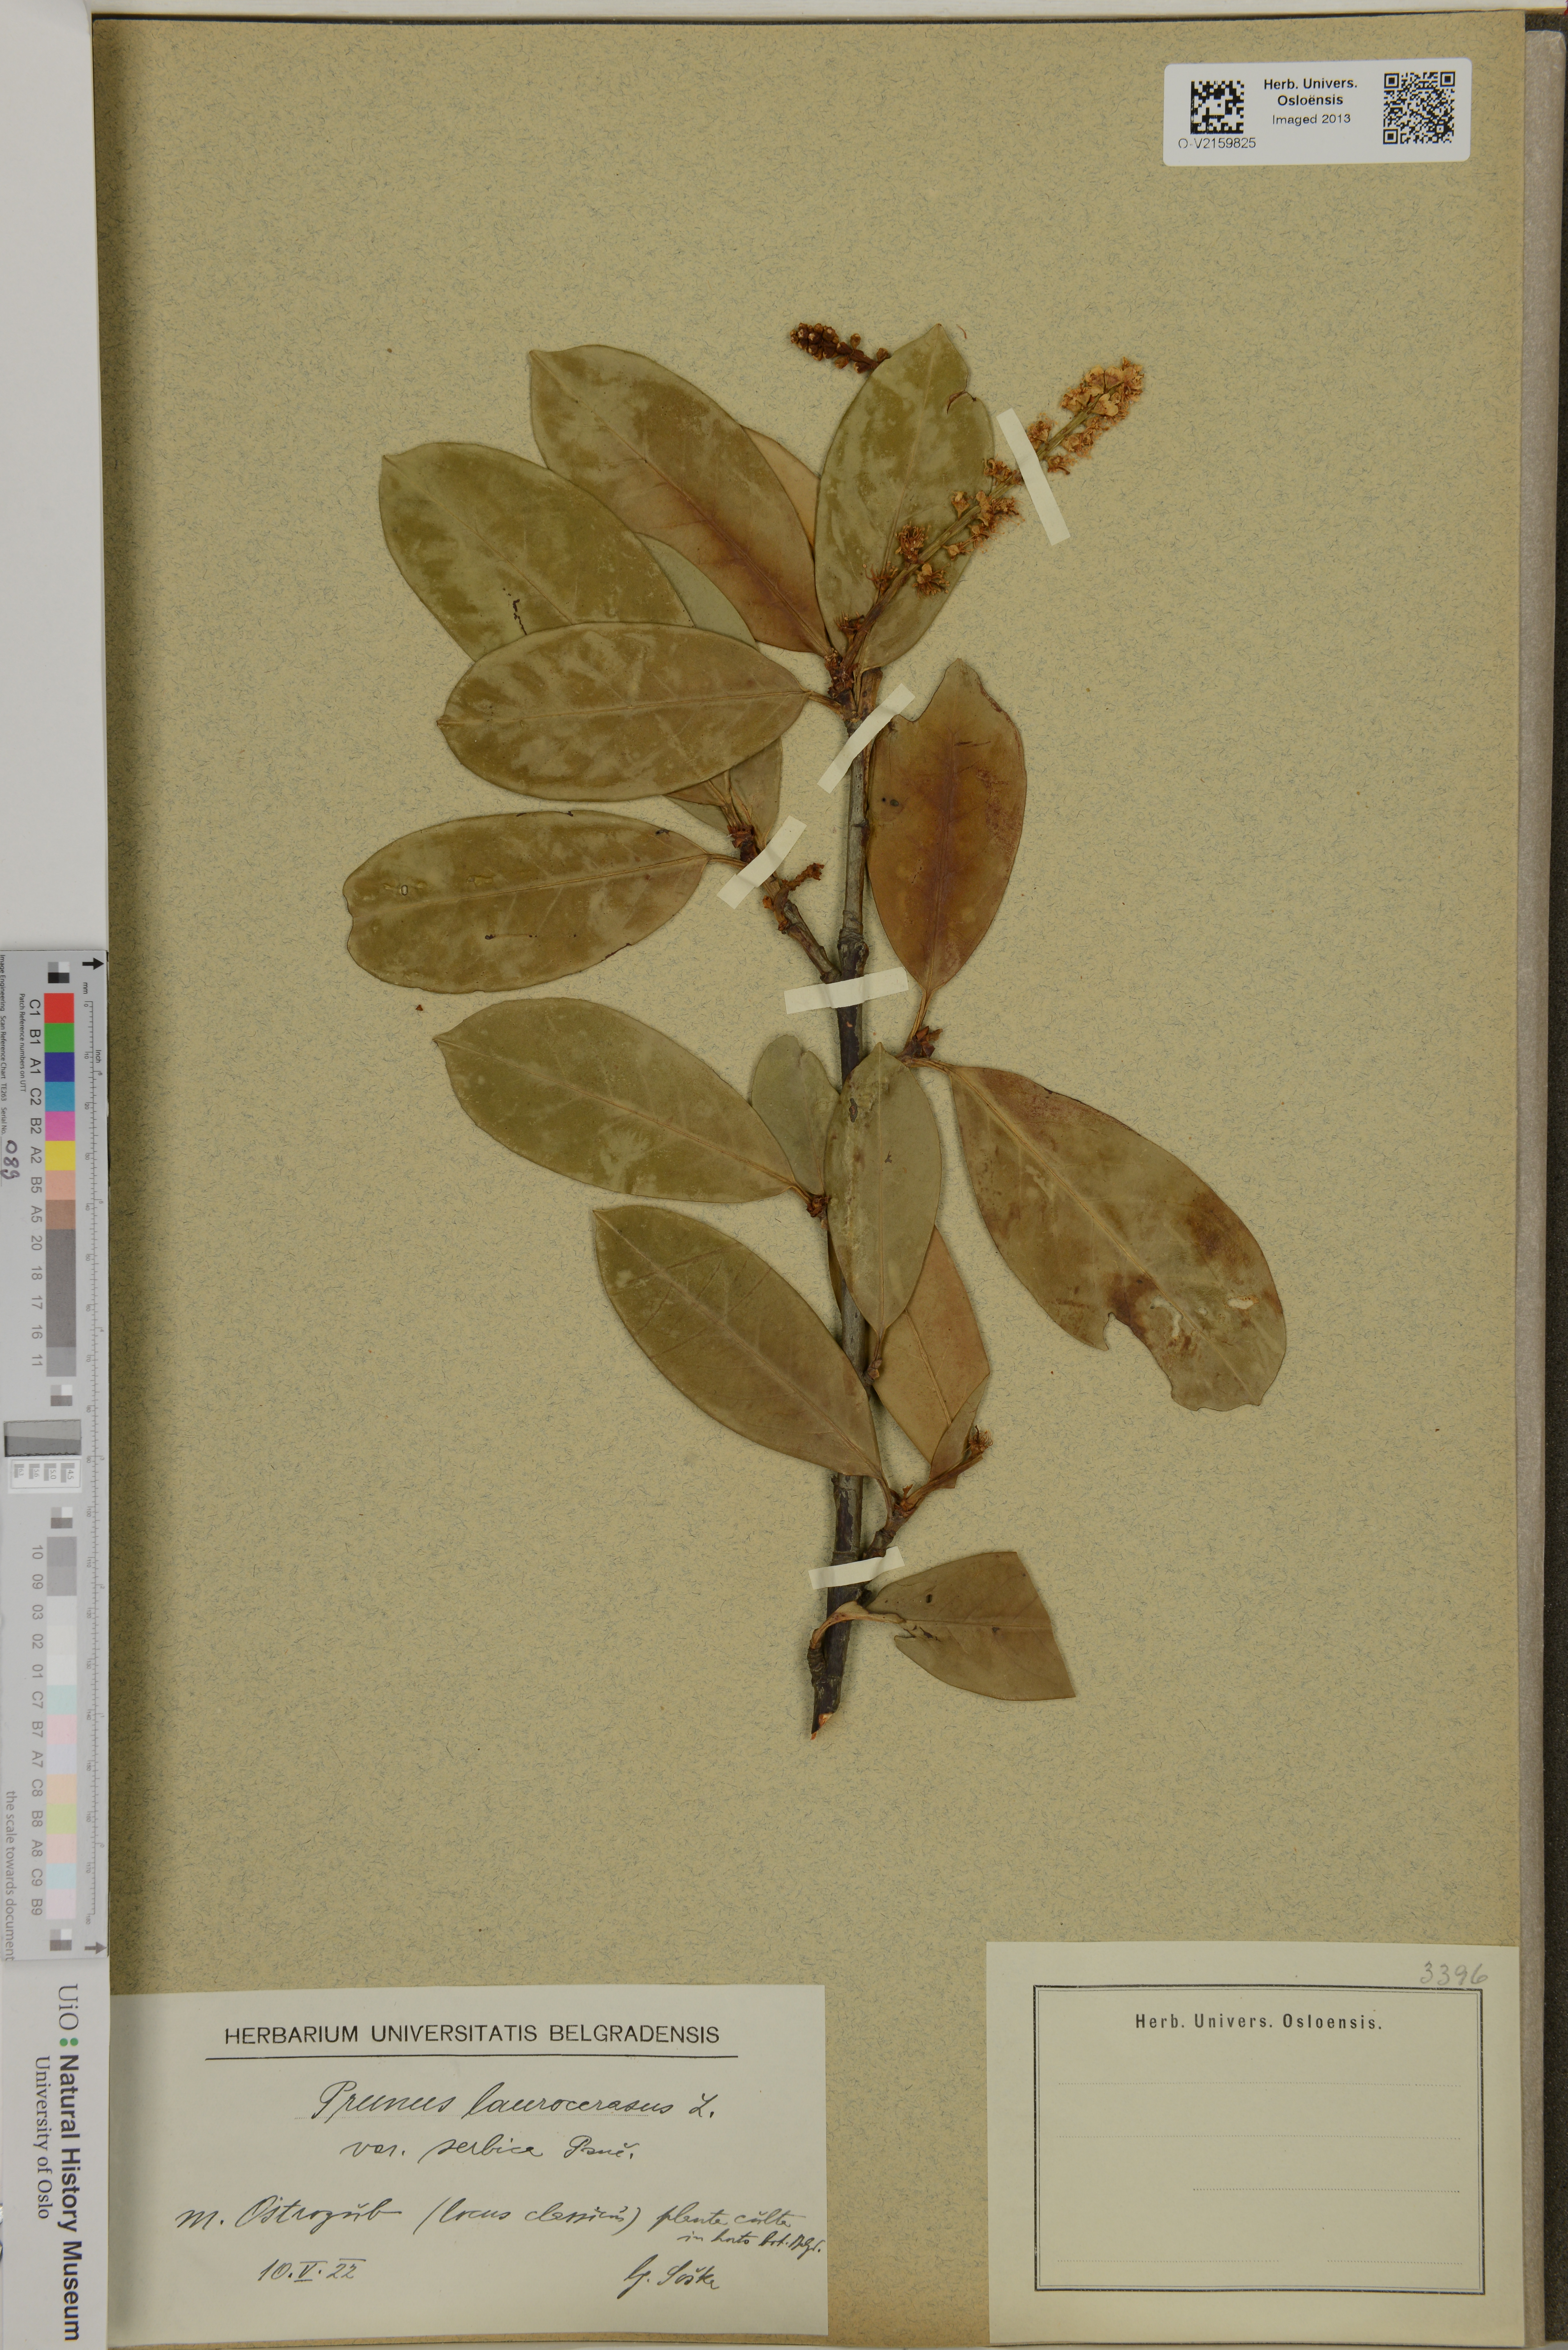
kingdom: Plantae
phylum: Tracheophyta
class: Magnoliopsida
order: Rosales
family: Rosaceae
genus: Prunus
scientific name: Prunus laurocerasus
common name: Cherry laurel
